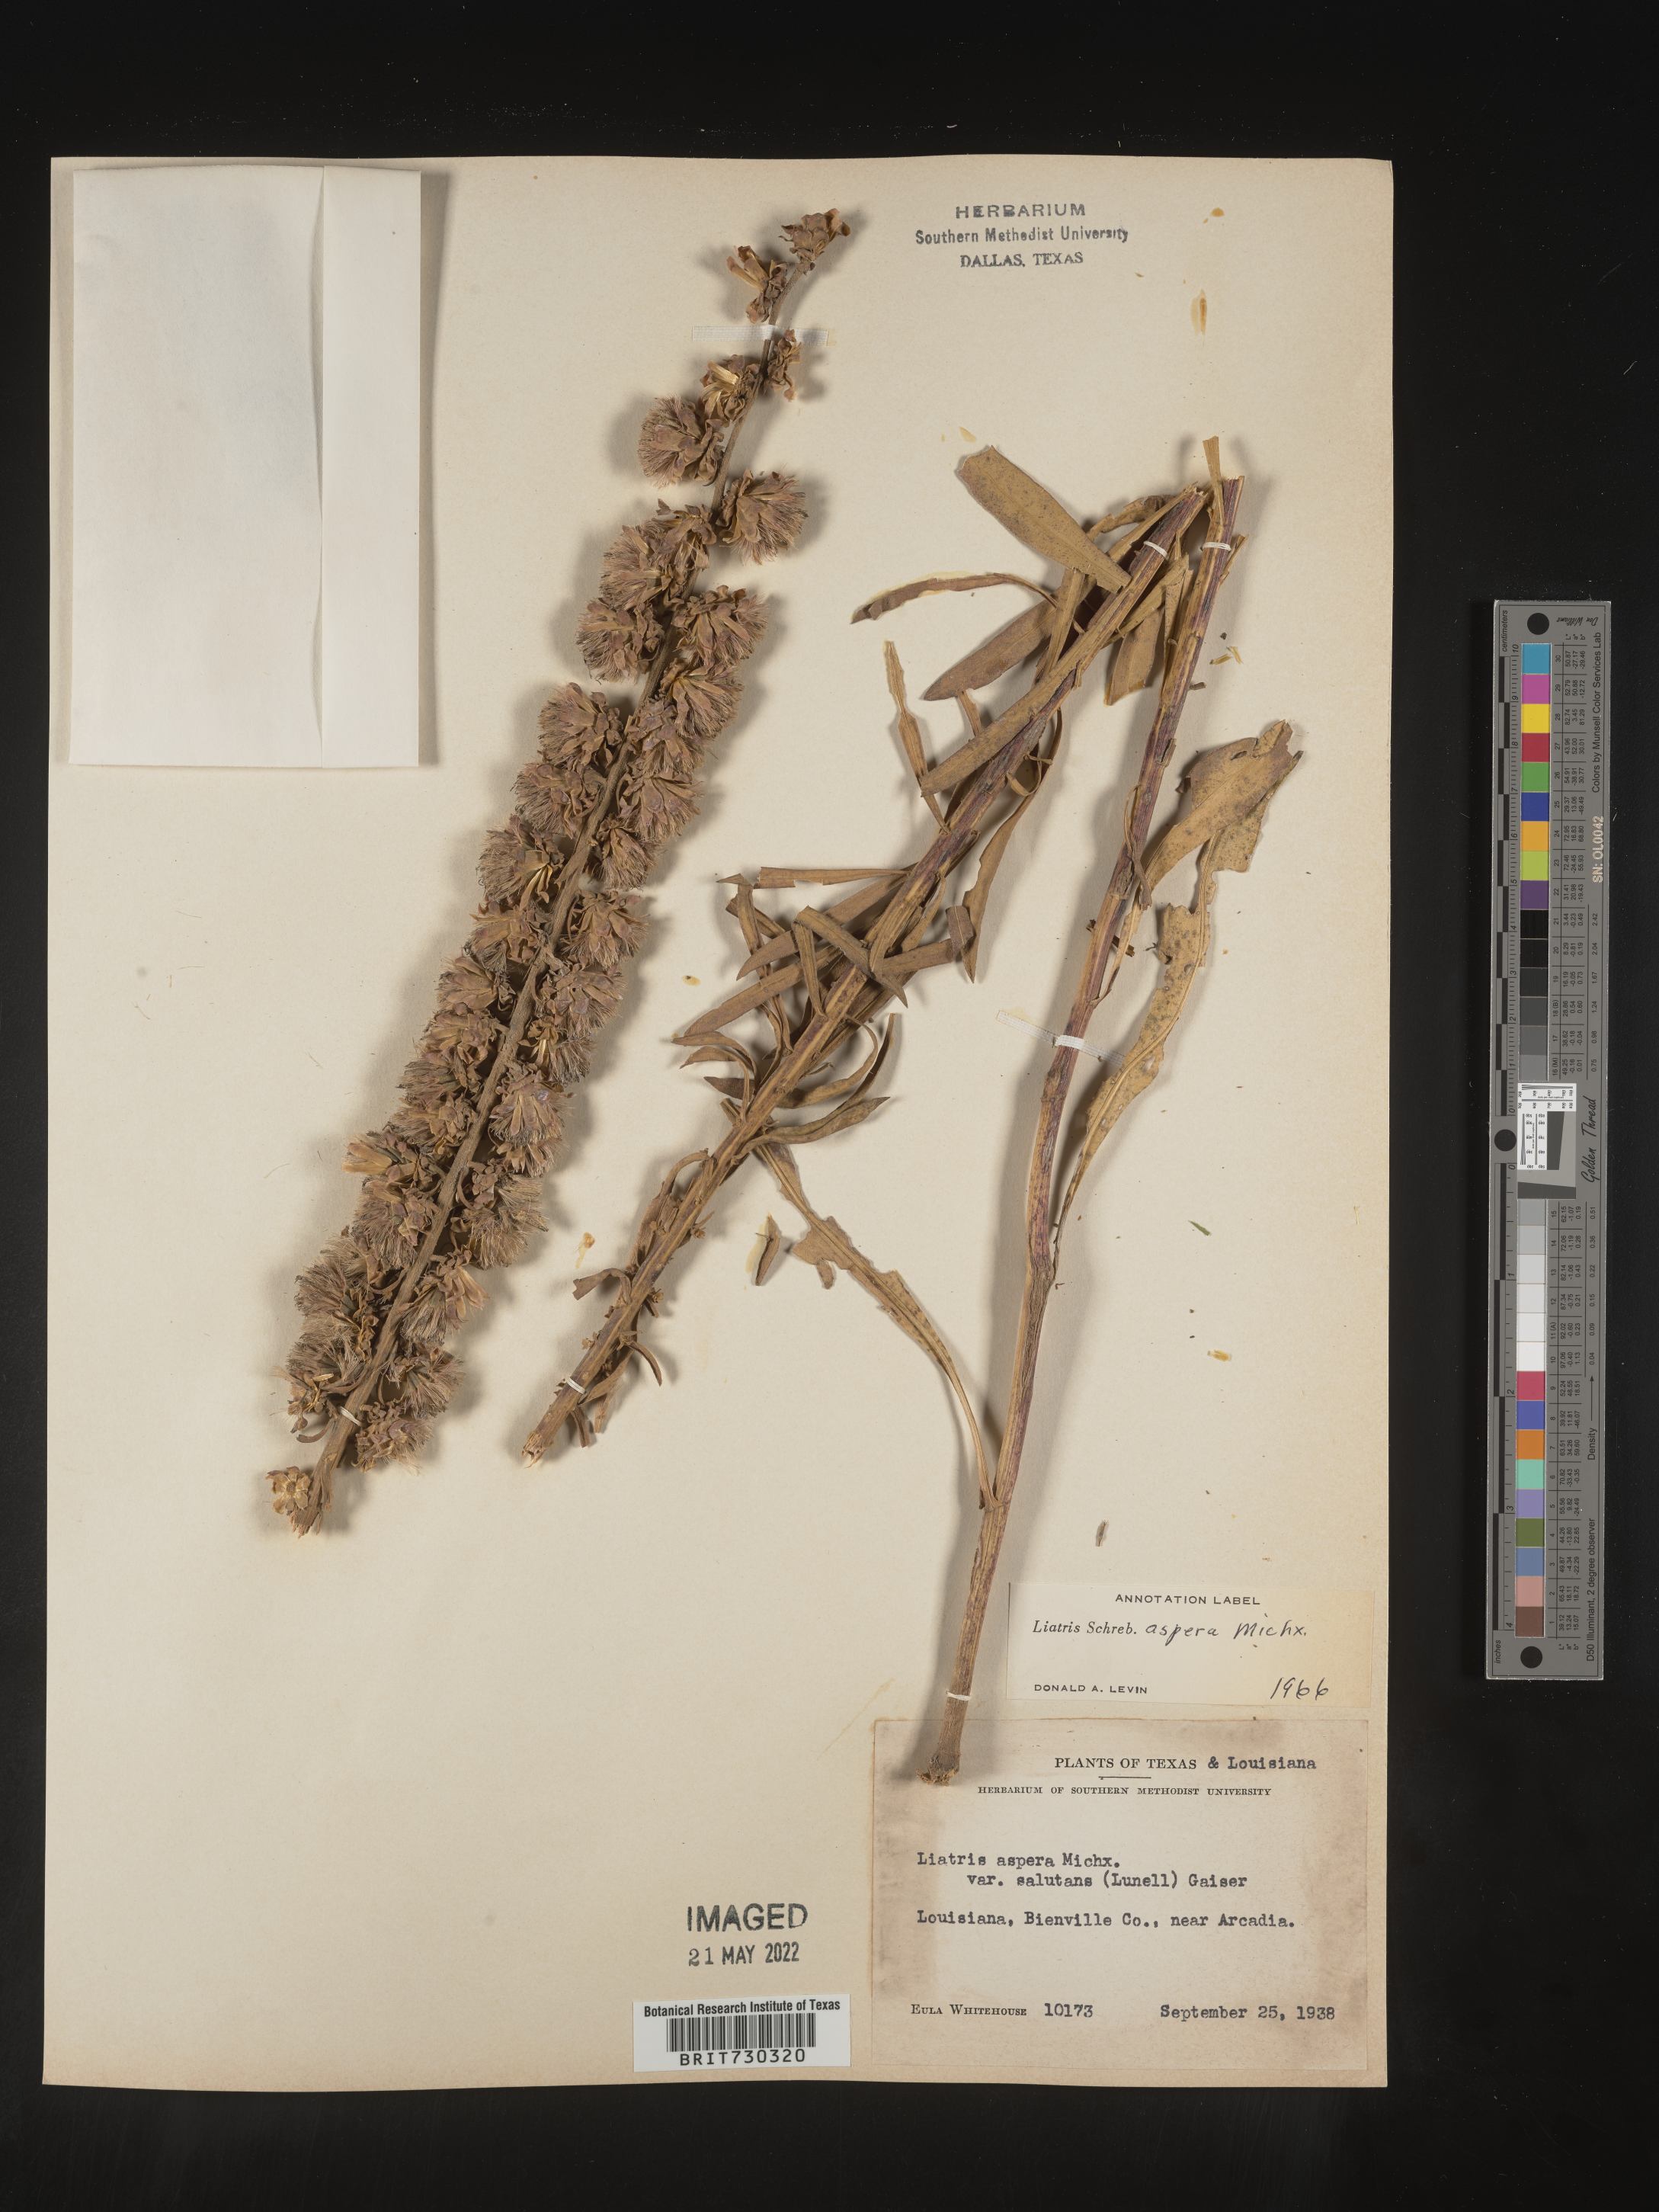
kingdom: Plantae
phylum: Tracheophyta
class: Magnoliopsida
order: Asterales
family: Asteraceae
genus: Liatris
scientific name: Liatris aspera
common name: Lacerate blazing-star
